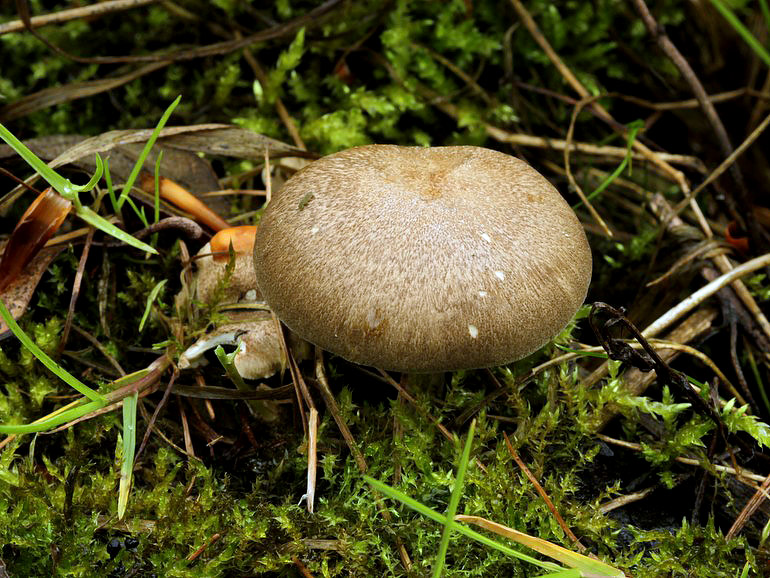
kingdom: Fungi
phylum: Basidiomycota
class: Agaricomycetes
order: Polyporales
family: Polyporaceae
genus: Lentinus
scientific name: Lentinus substrictus
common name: forårs-stilkporesvamp
